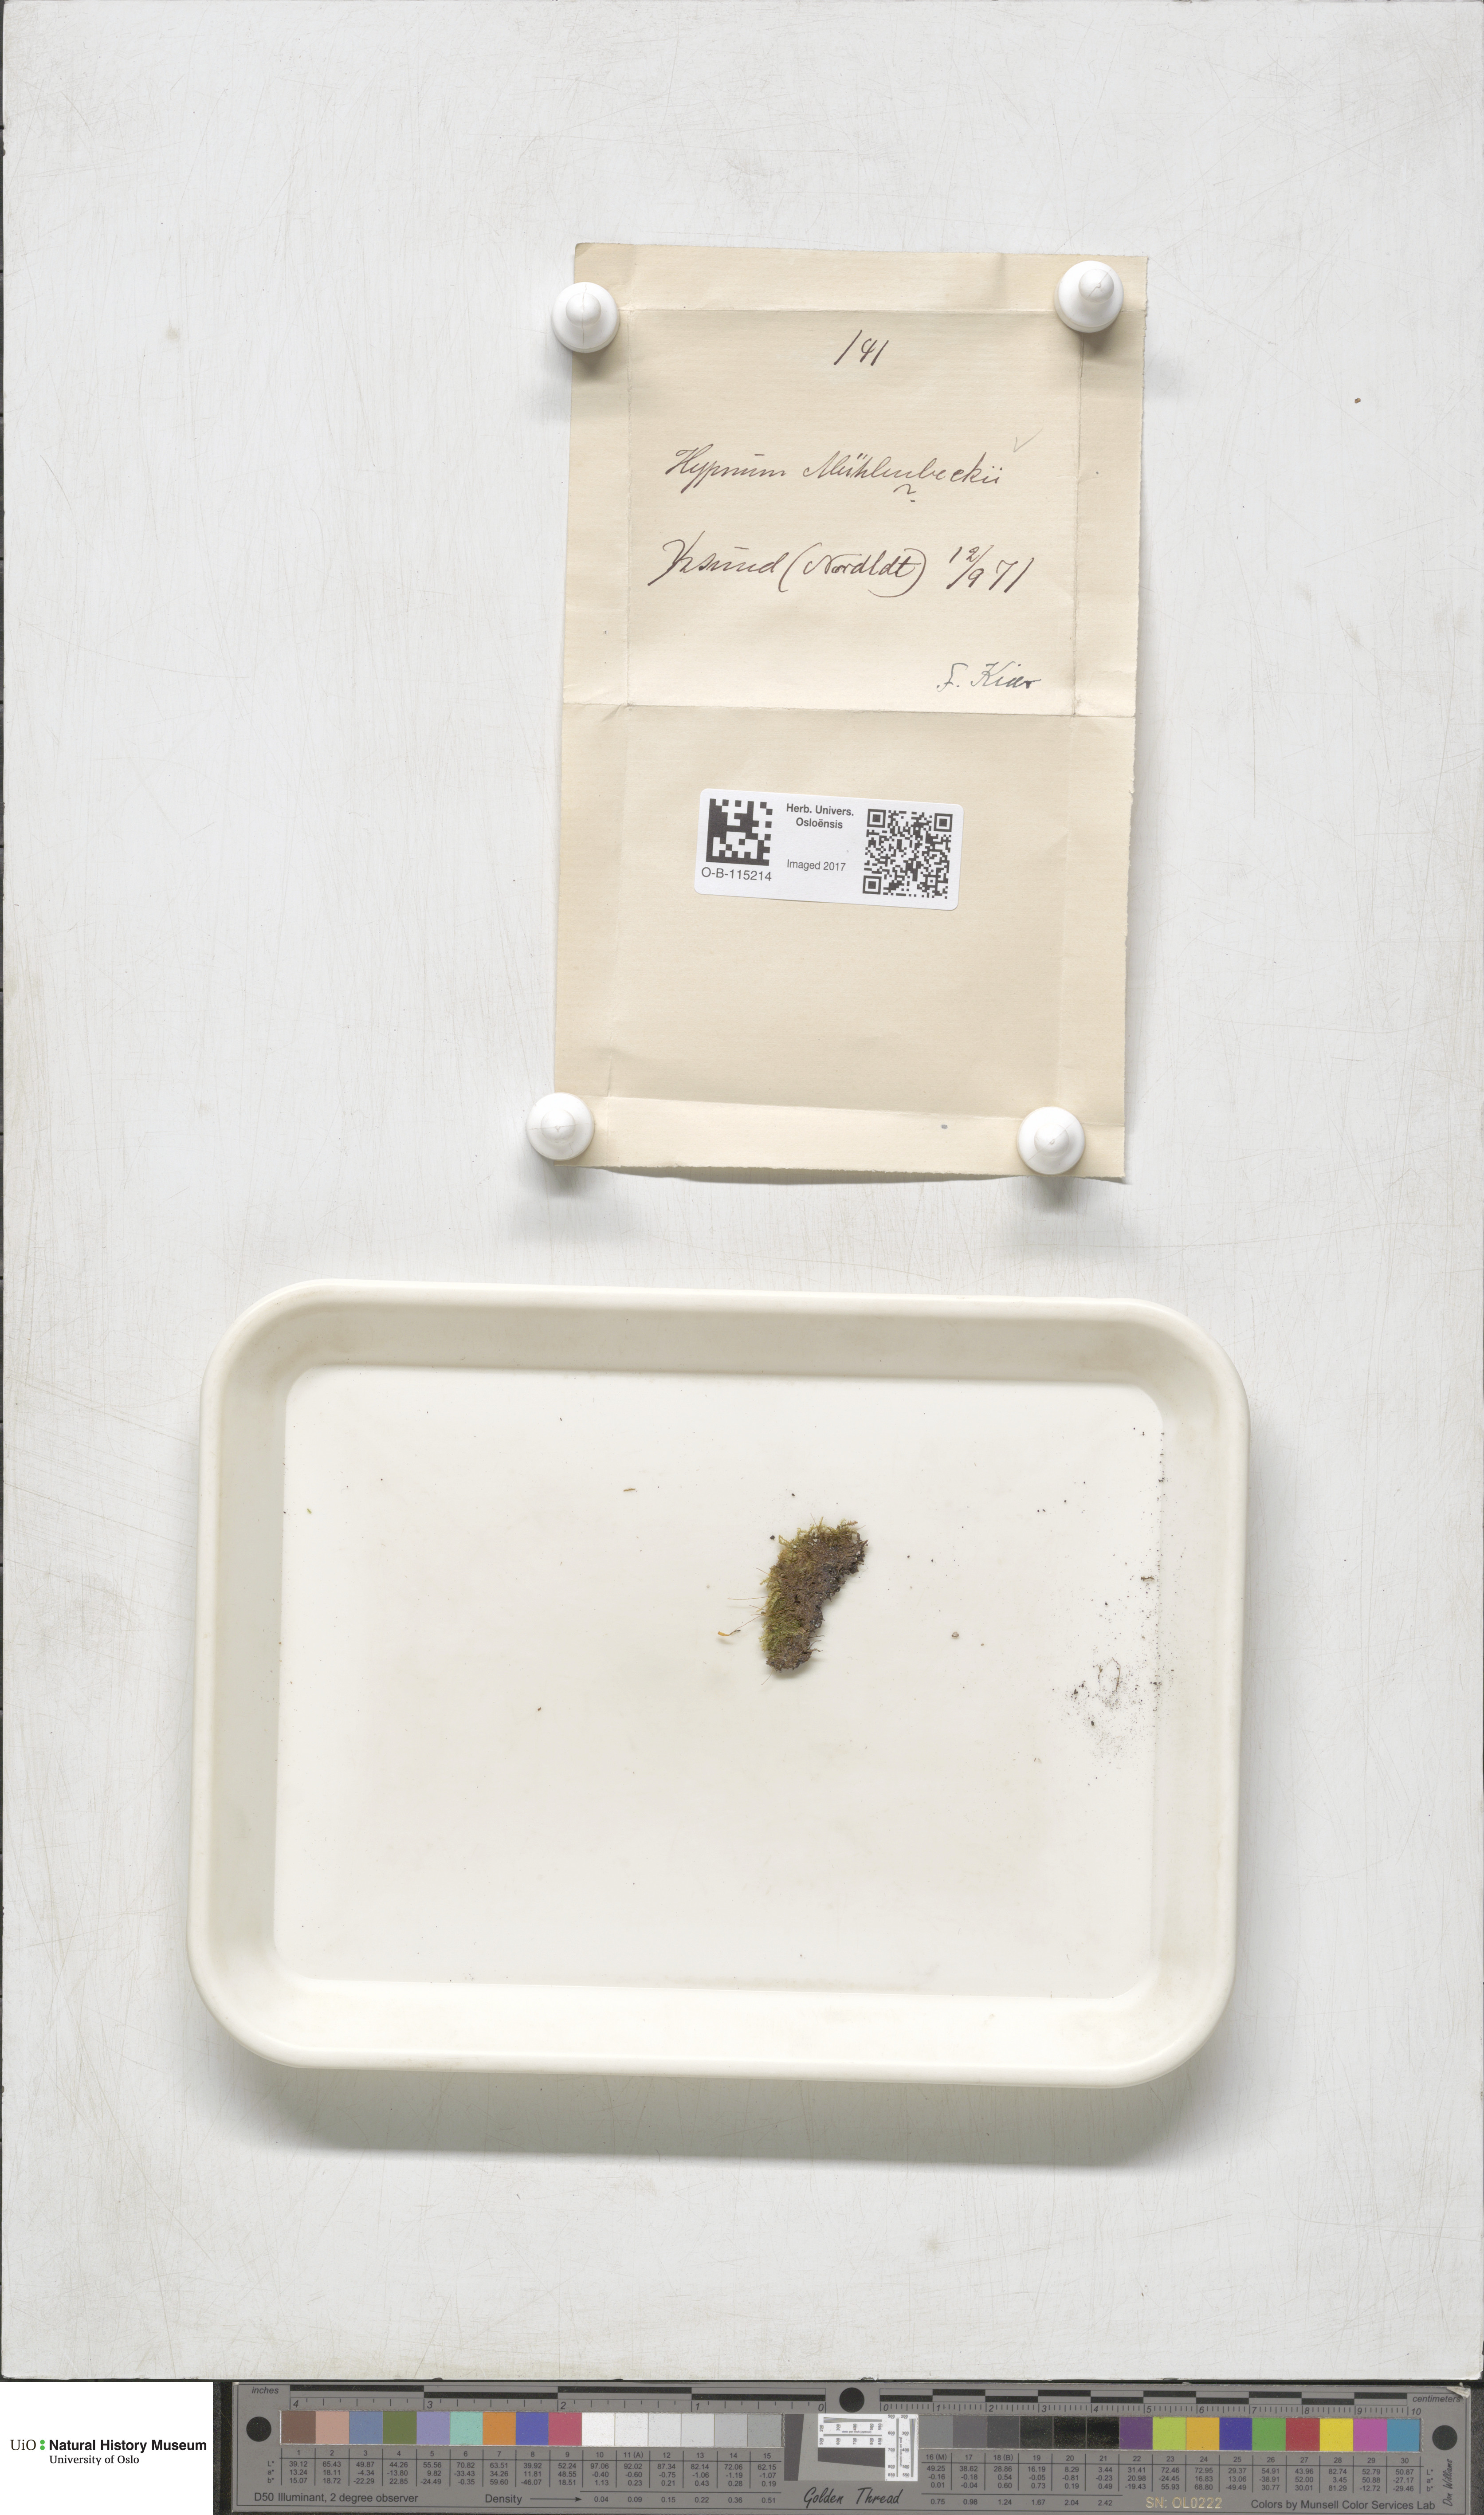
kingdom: Plantae
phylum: Bryophyta
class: Bryopsida
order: Hypnales
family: Plagiotheciaceae
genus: Herzogiella
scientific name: Herzogiella striatella
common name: Muhlenbeck's feather-moss
